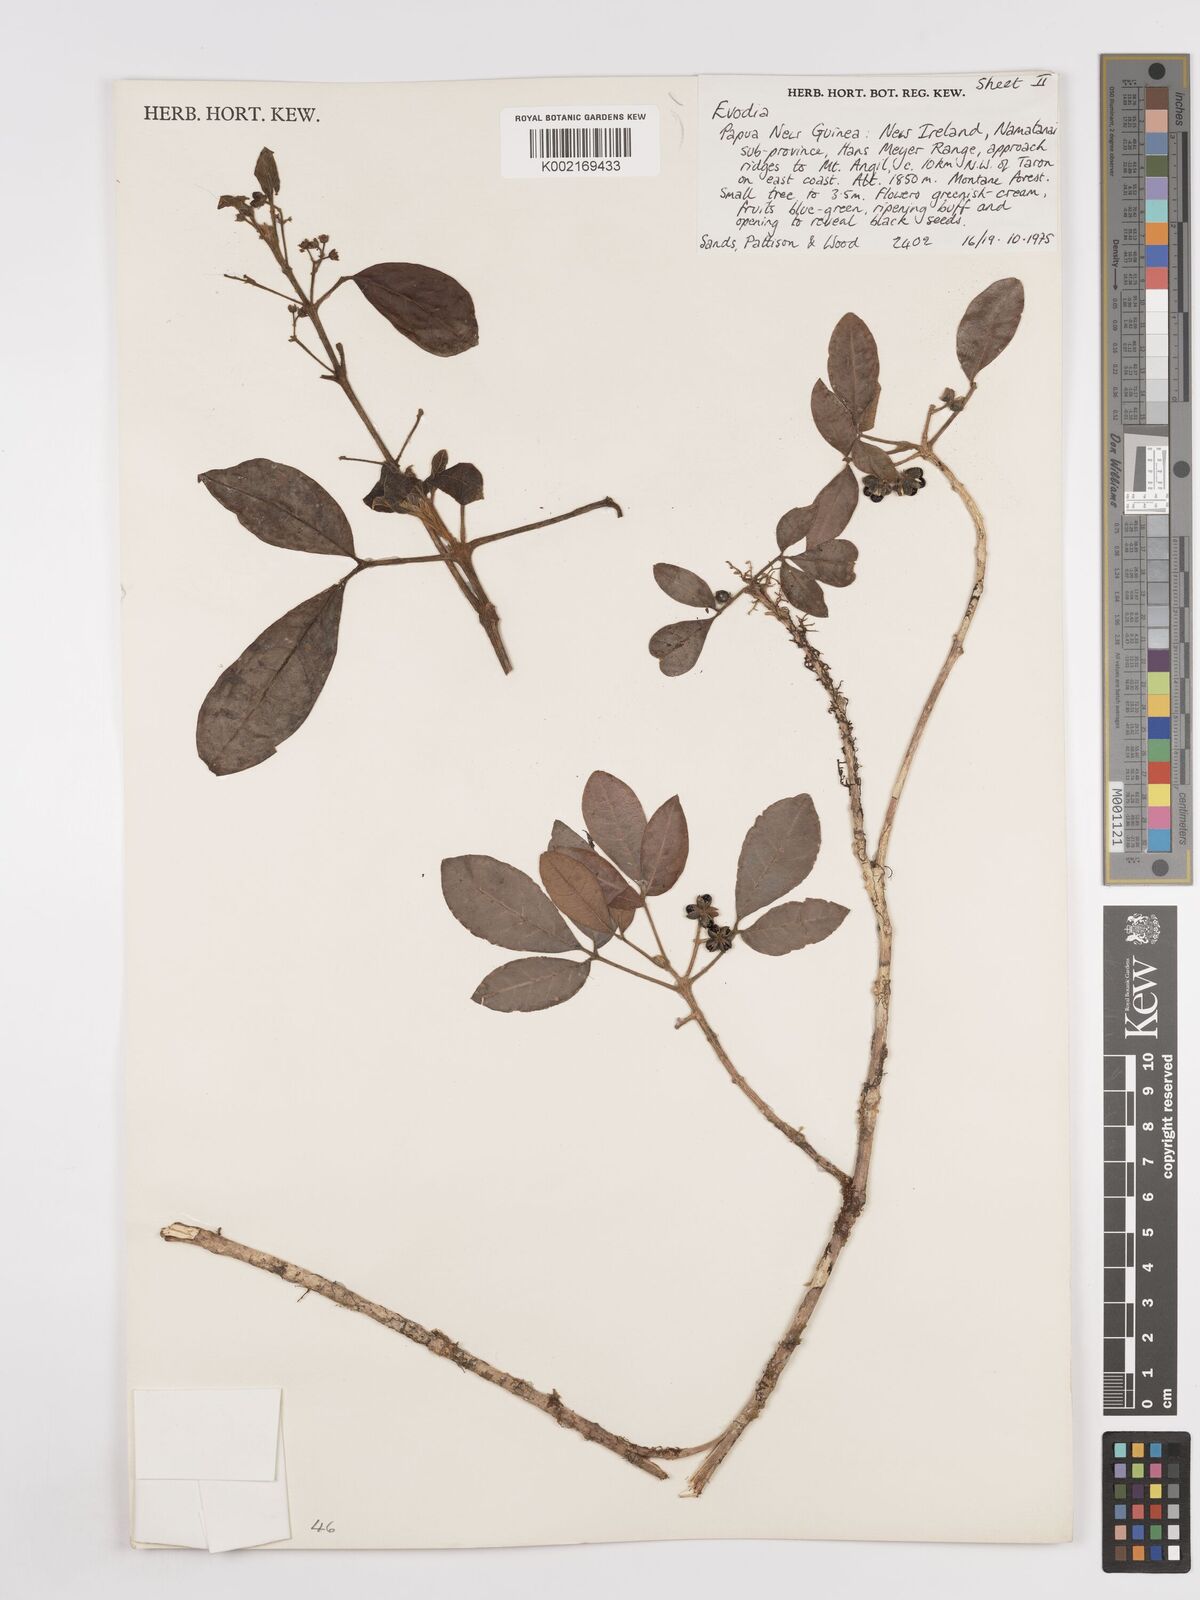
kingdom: Plantae
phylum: Tracheophyta
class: Magnoliopsida
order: Sapindales
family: Rutaceae
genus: Euodia
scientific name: Euodia
